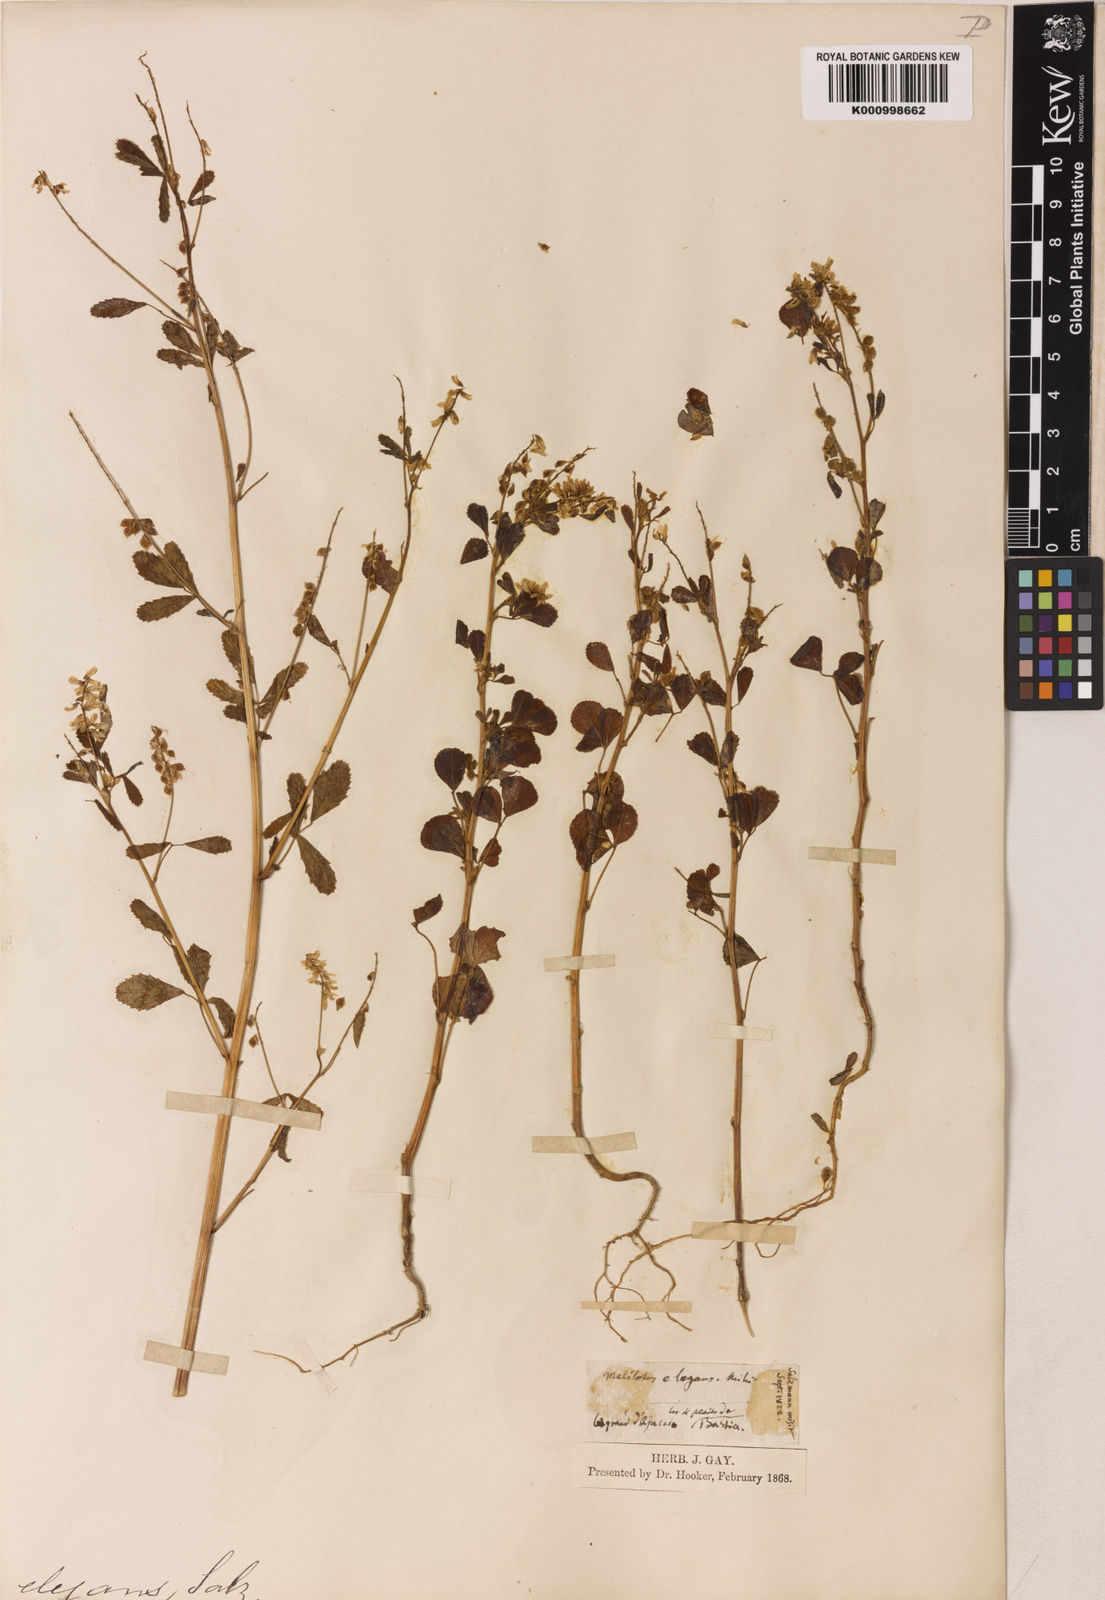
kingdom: Plantae
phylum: Tracheophyta
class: Magnoliopsida
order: Fabales
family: Fabaceae
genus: Melilotus
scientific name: Melilotus elegans
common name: Elegant sweet-clover
